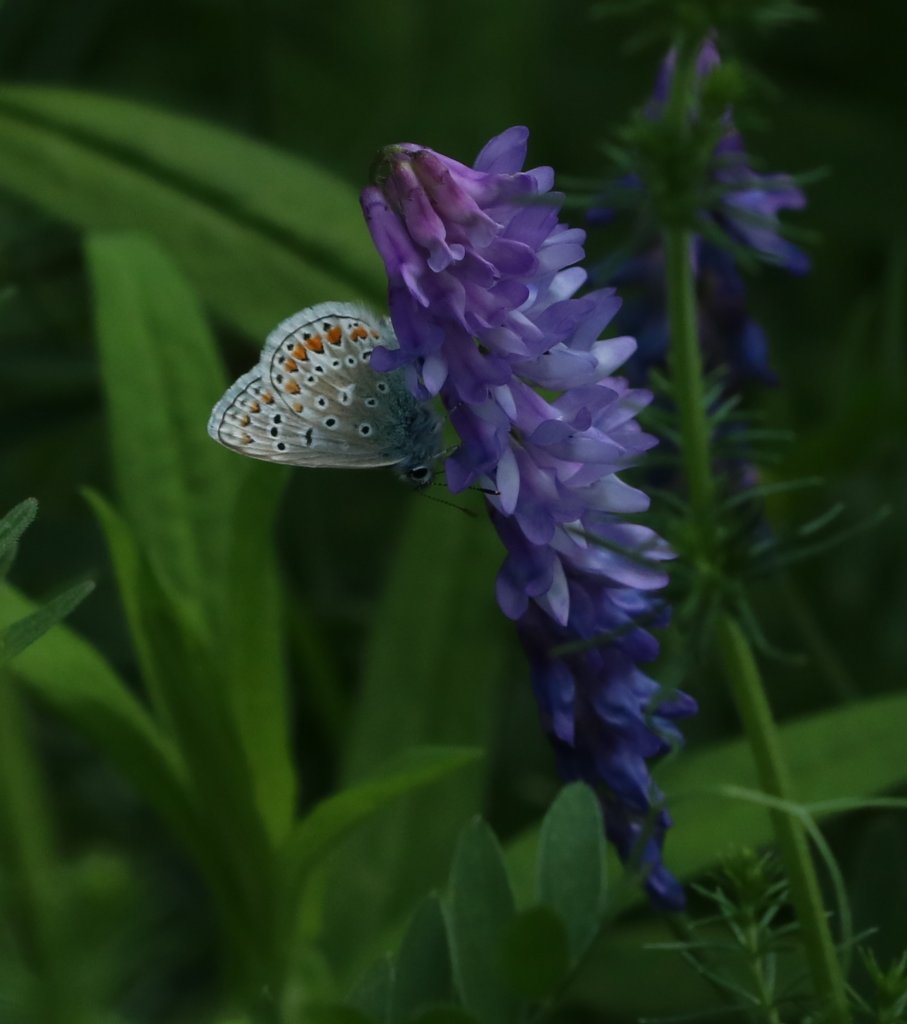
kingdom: Animalia
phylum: Arthropoda
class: Insecta
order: Lepidoptera
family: Lycaenidae
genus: Polyommatus
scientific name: Polyommatus icarus
